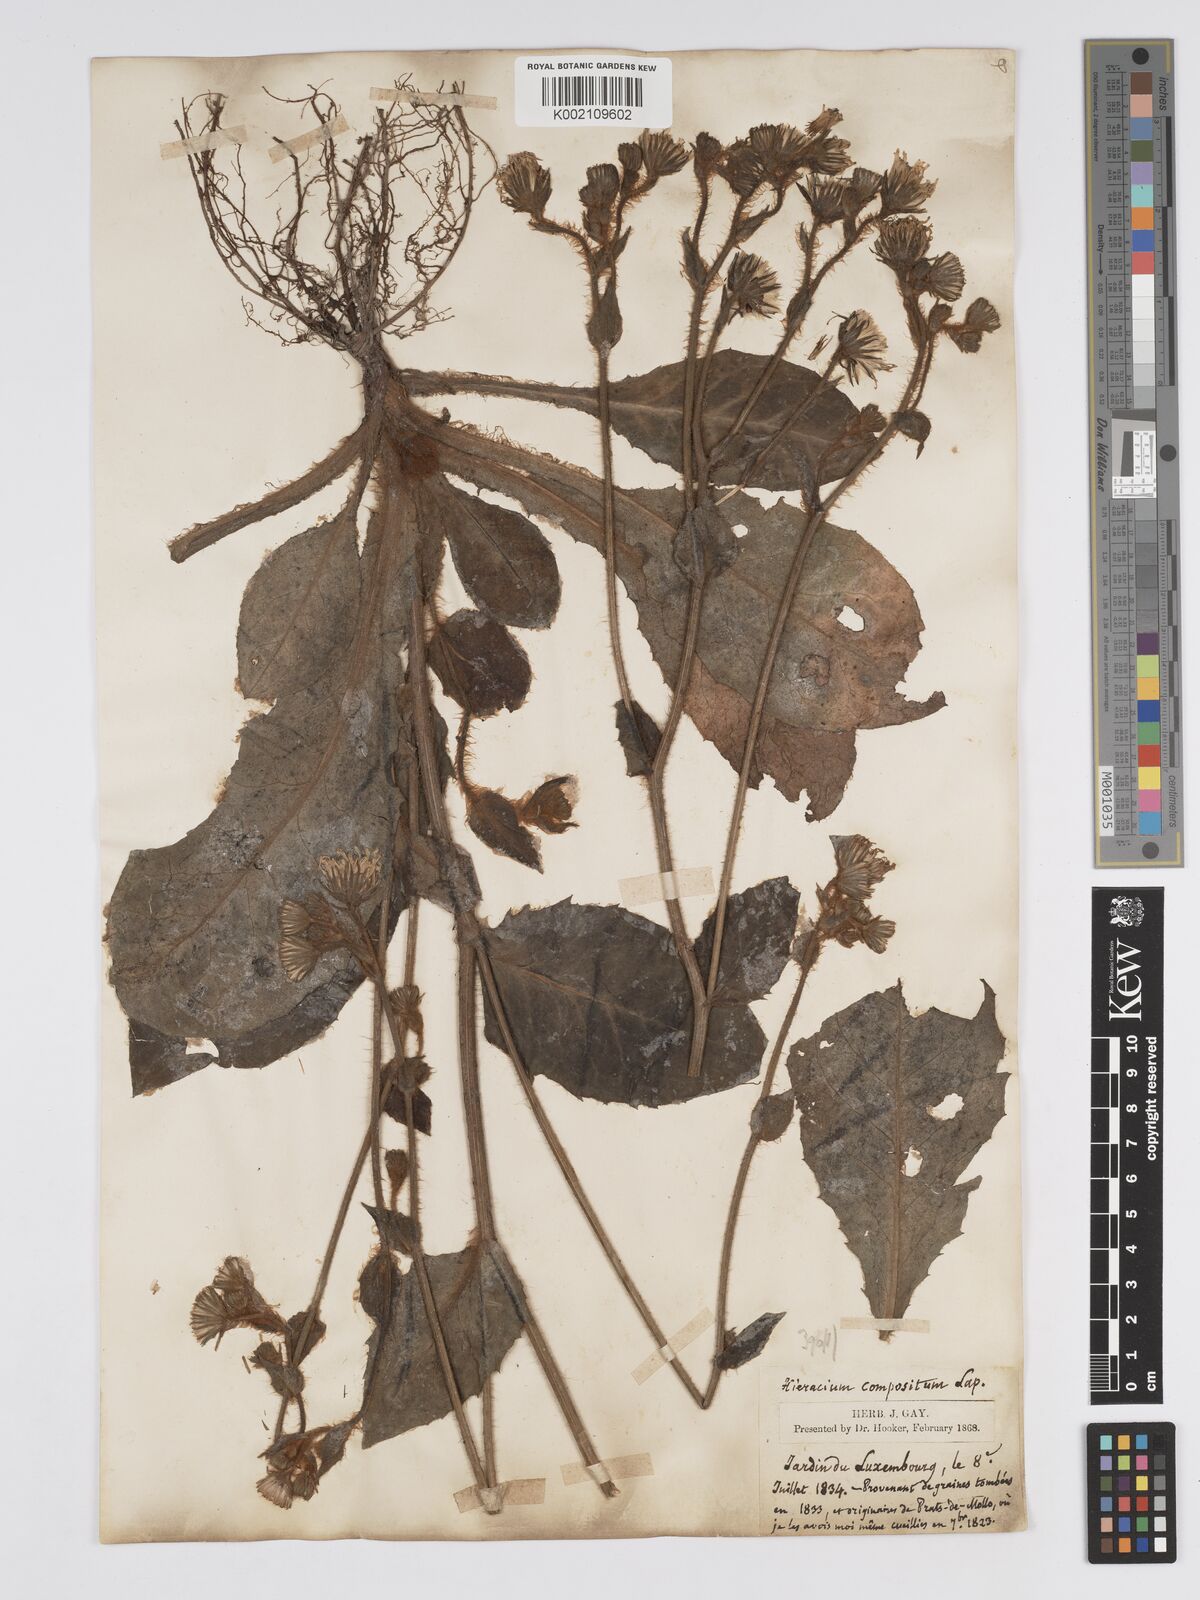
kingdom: Plantae
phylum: Tracheophyta
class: Magnoliopsida
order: Asterales
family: Asteraceae
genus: Hieracium
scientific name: Hieracium compositum
